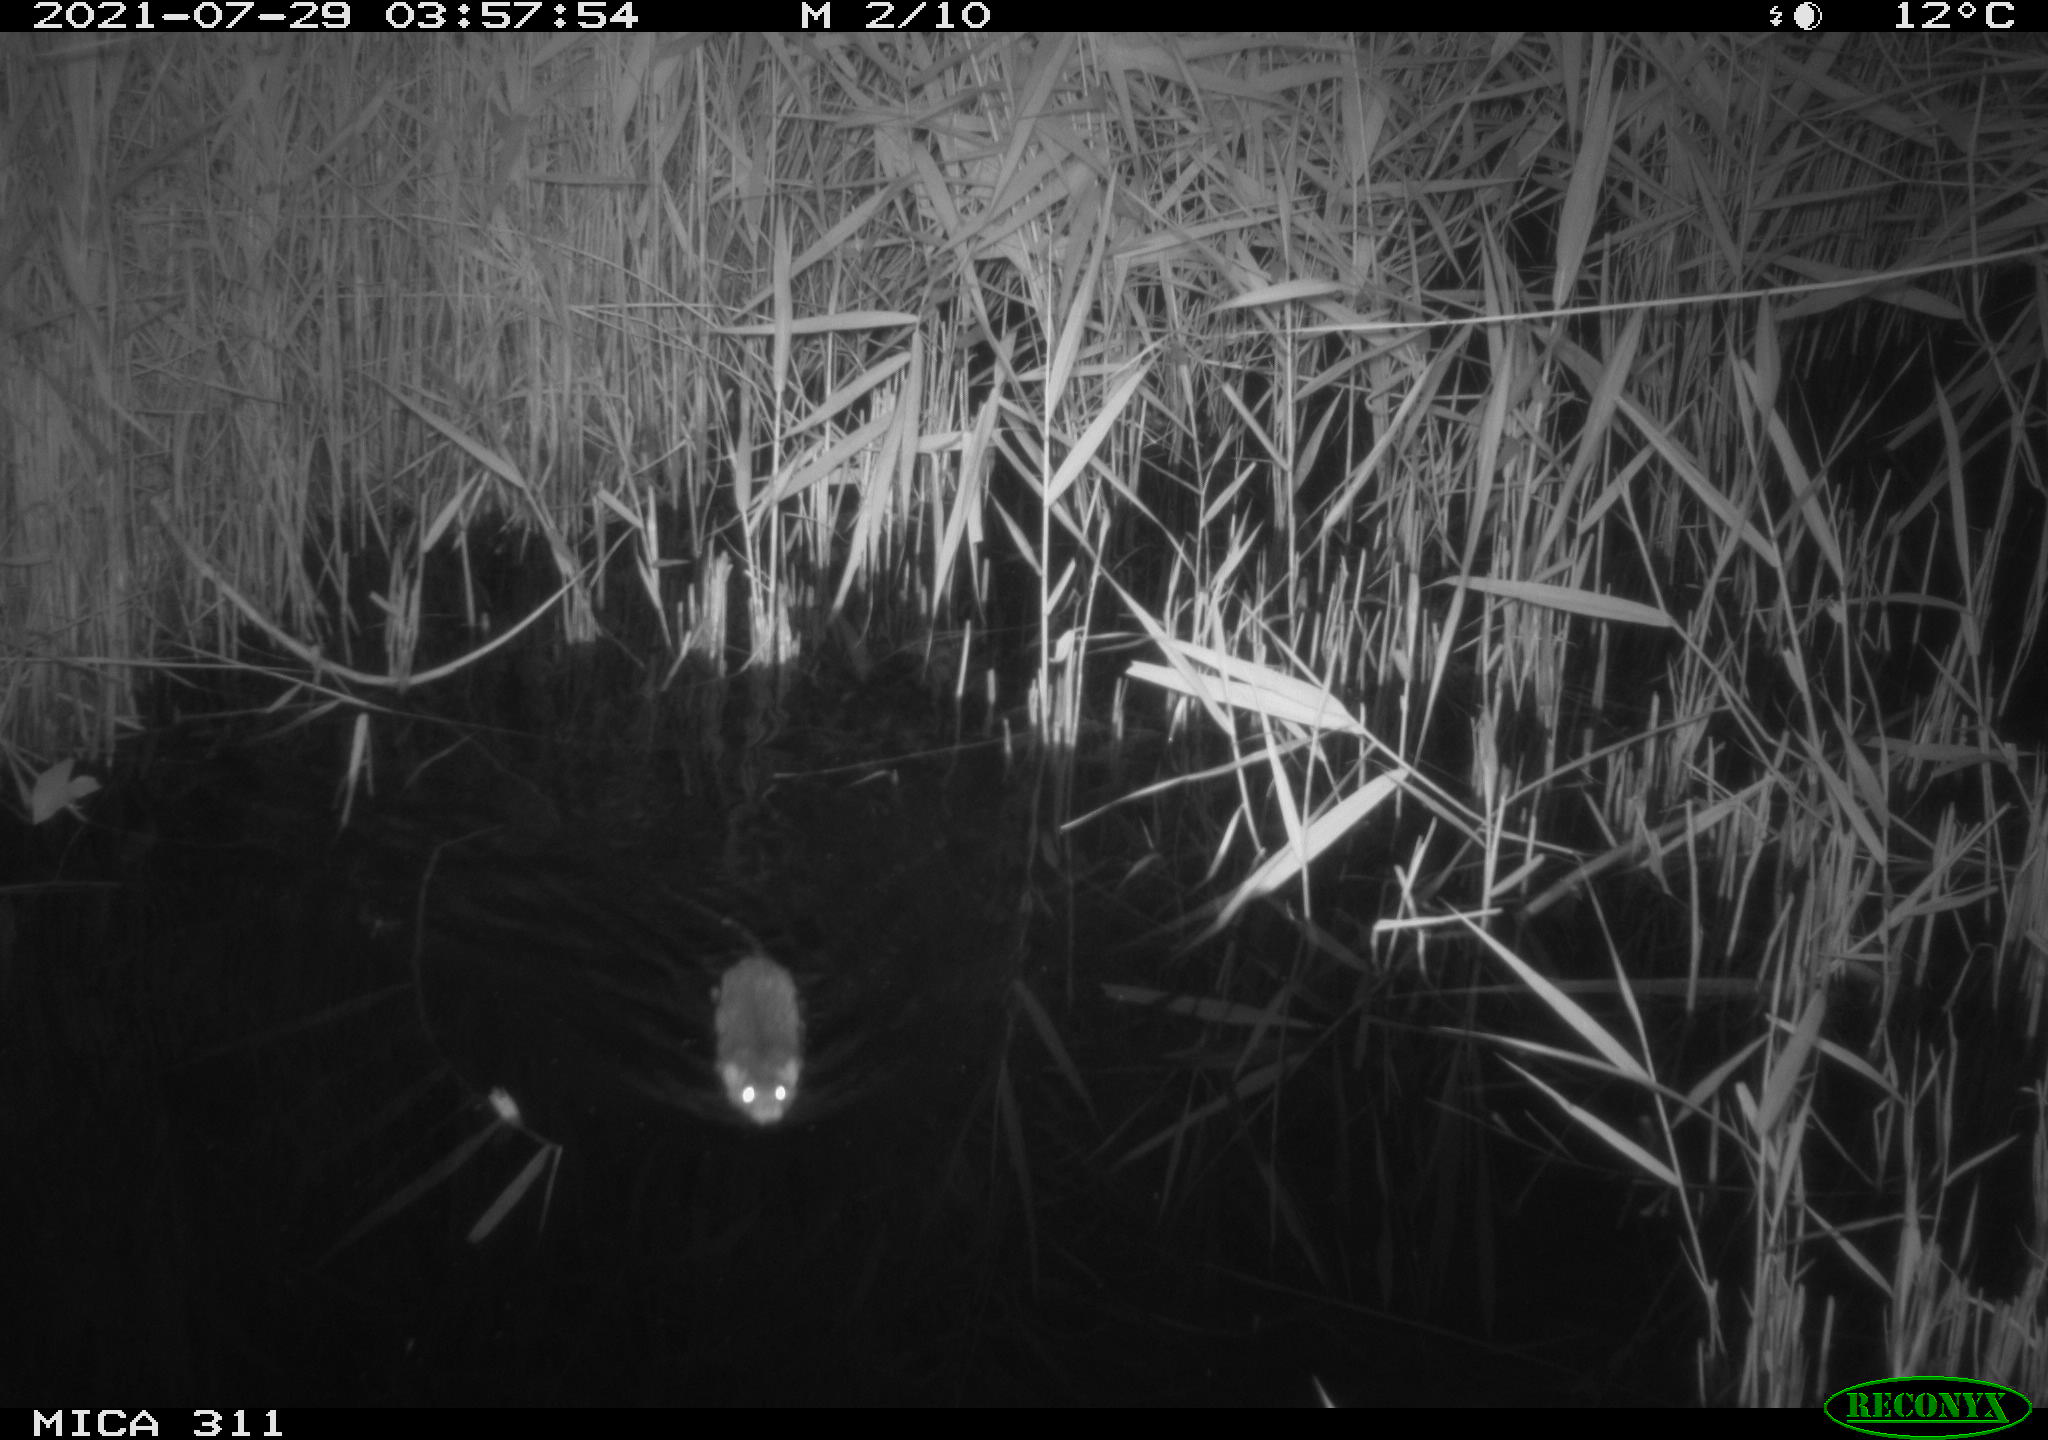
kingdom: Animalia
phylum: Chordata
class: Mammalia
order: Rodentia
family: Muridae
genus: Rattus
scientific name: Rattus norvegicus
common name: Brown rat
